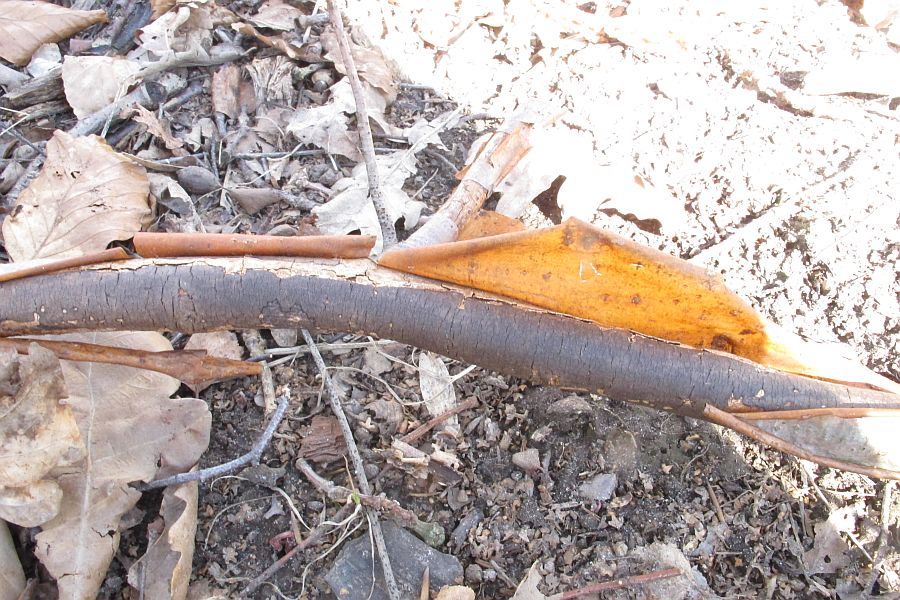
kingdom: Fungi
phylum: Ascomycota
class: Sordariomycetes
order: Xylariales
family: Diatrypaceae
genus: Diatrype
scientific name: Diatrype decorticata
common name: barksprænger-kulskorpe
